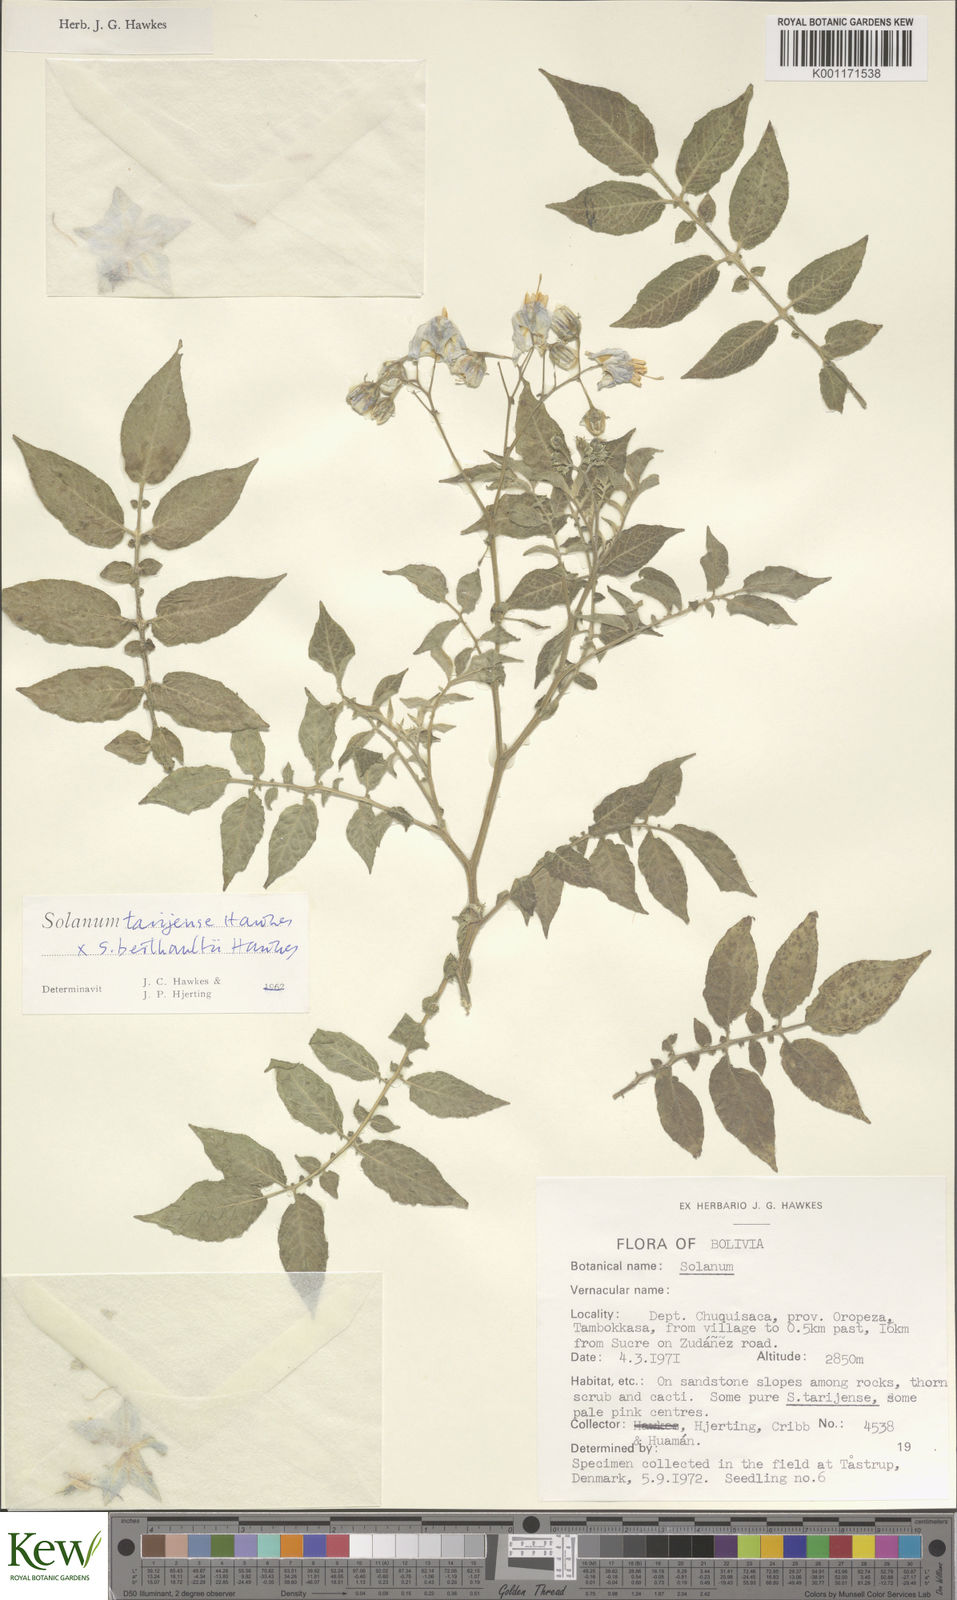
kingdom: Plantae
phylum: Tracheophyta
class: Magnoliopsida
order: Solanales
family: Solanaceae
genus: Solanum
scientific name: Solanum tarijense
